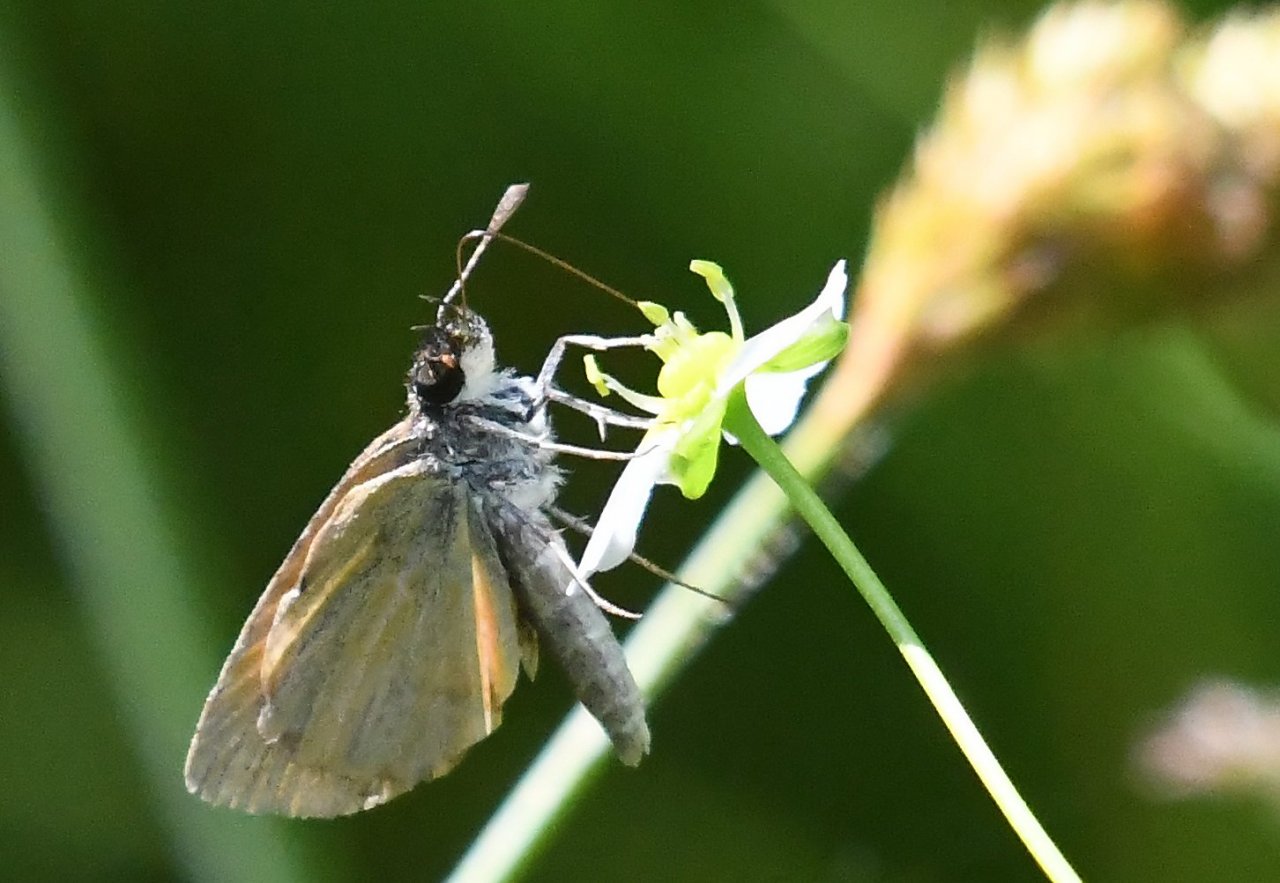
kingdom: Animalia
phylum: Arthropoda
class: Insecta
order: Lepidoptera
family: Hesperiidae
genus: Ancyloxypha
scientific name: Ancyloxypha numitor
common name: Least Skipper
